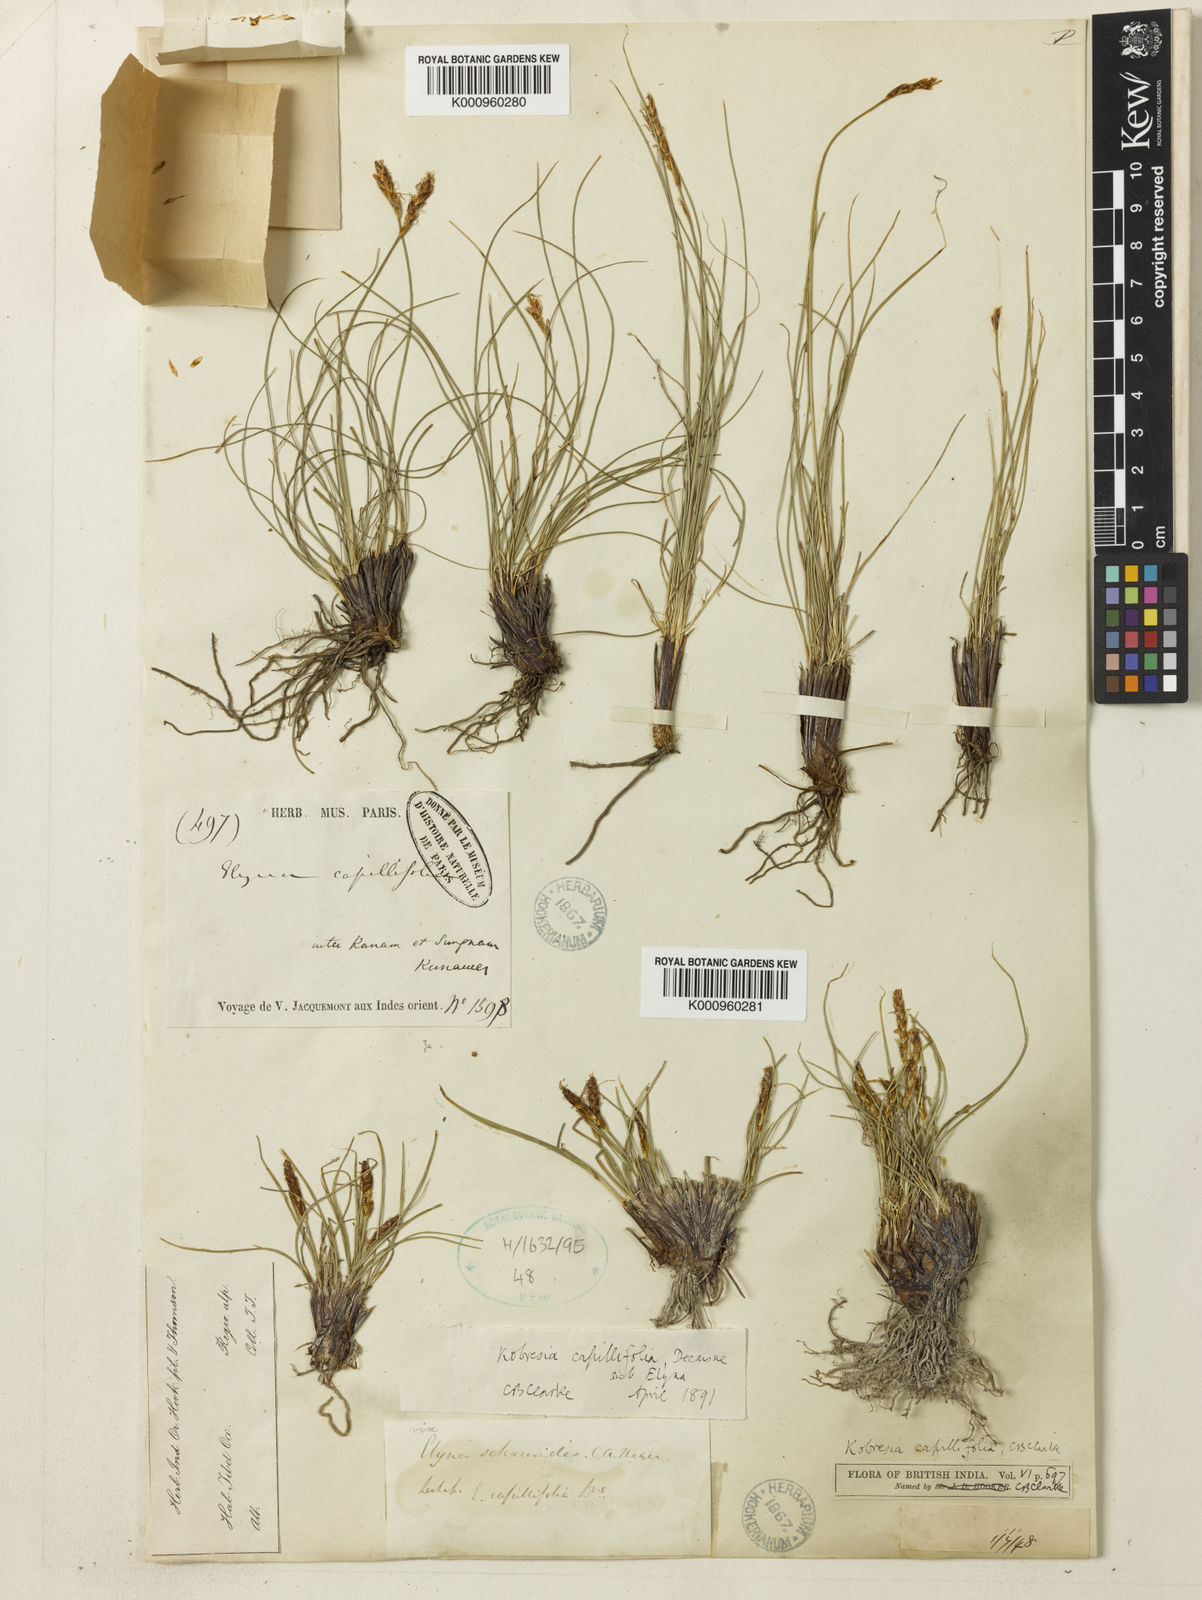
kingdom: Plantae
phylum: Tracheophyta
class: Liliopsida
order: Poales
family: Cyperaceae
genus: Carex
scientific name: Carex capillifolia
